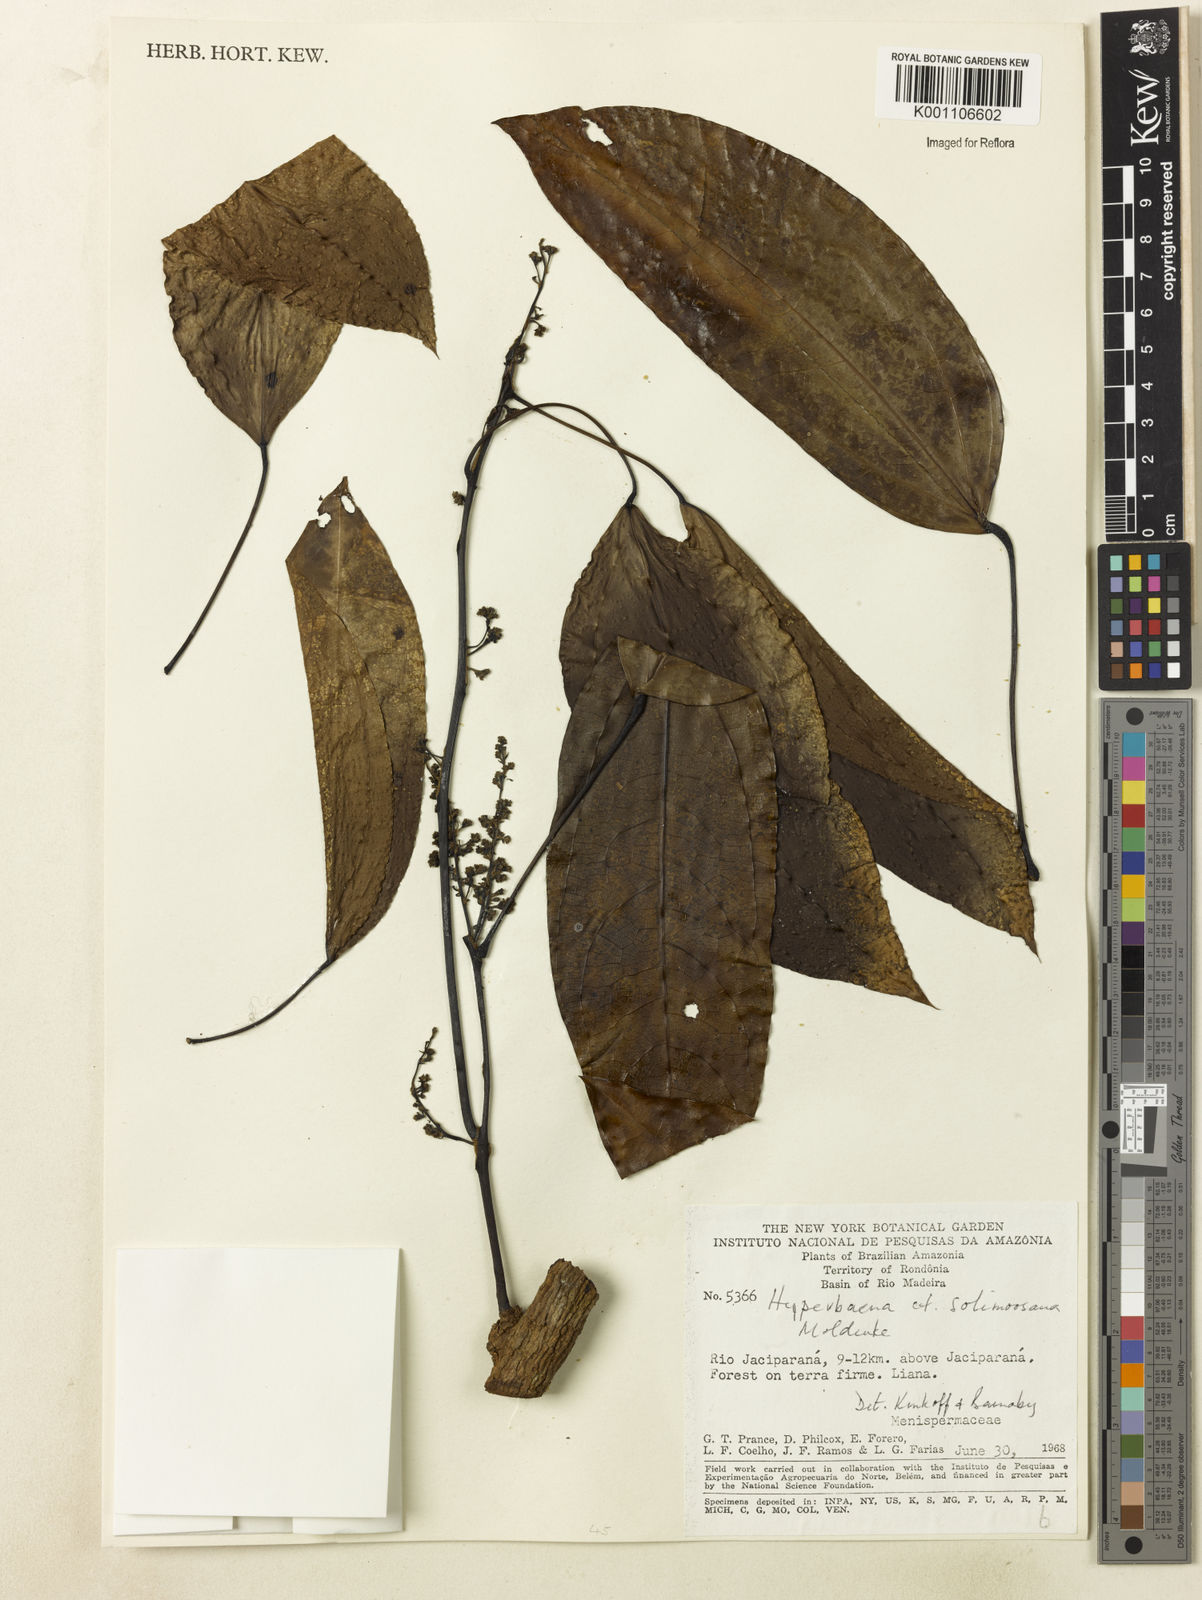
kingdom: Plantae
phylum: Tracheophyta
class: Magnoliopsida
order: Ranunculales
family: Menispermaceae
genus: Elissarrhena
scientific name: Elissarrhena solimoesana
